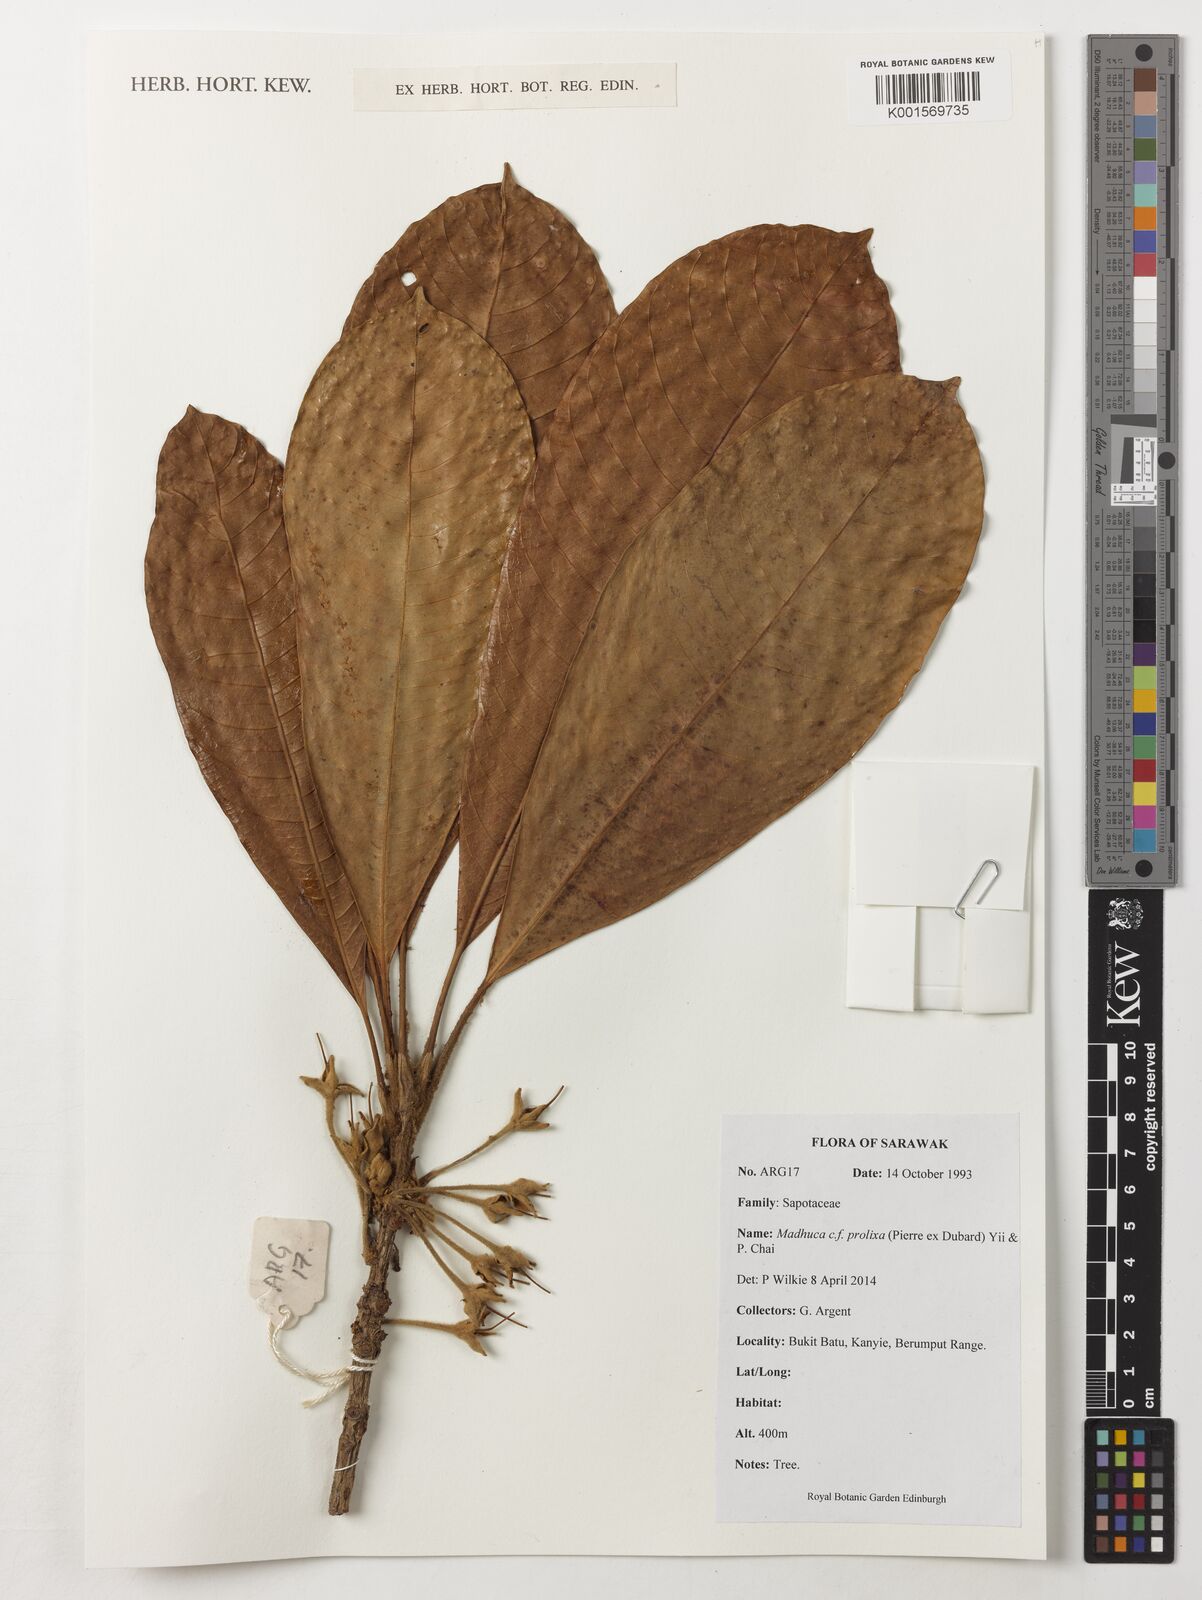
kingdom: Plantae
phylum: Tracheophyta
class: Magnoliopsida
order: Ericales
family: Sapotaceae
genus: Madhuca
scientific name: Madhuca prolixa
